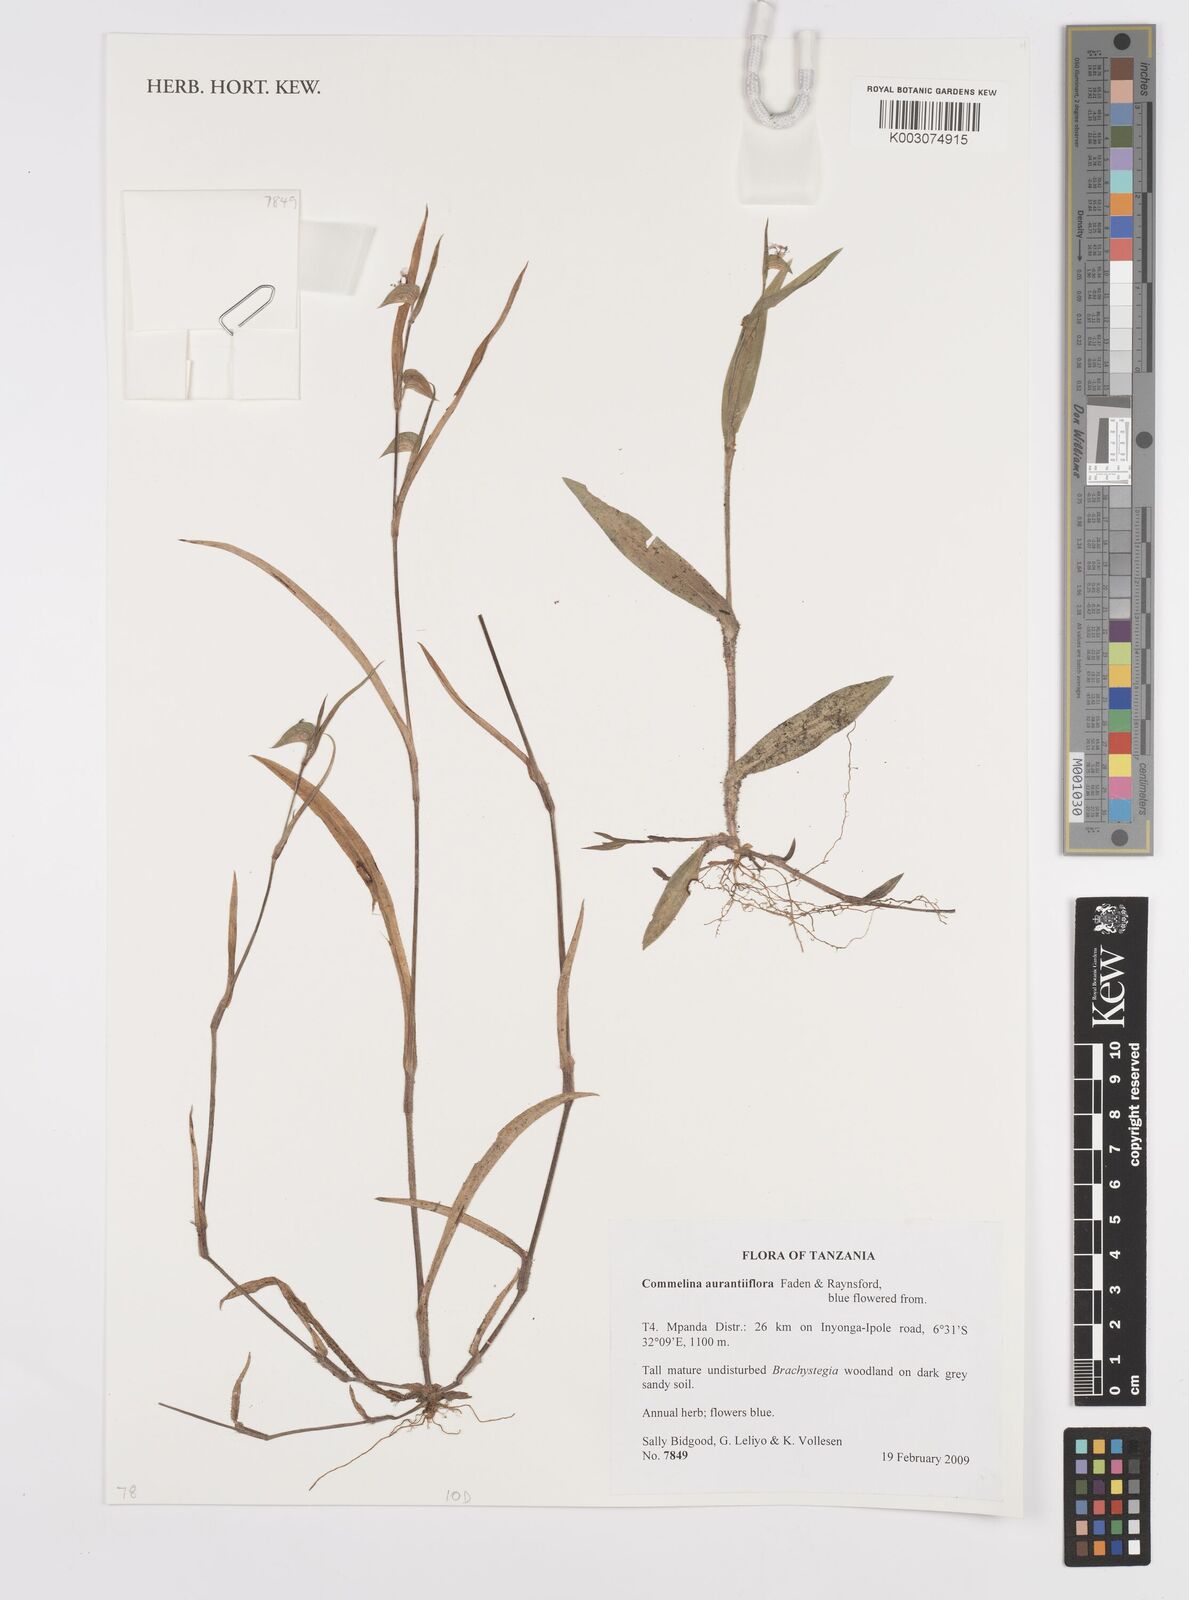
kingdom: Plantae
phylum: Tracheophyta
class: Liliopsida
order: Commelinales
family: Commelinaceae
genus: Commelina
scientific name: Commelina aurantiiflora
